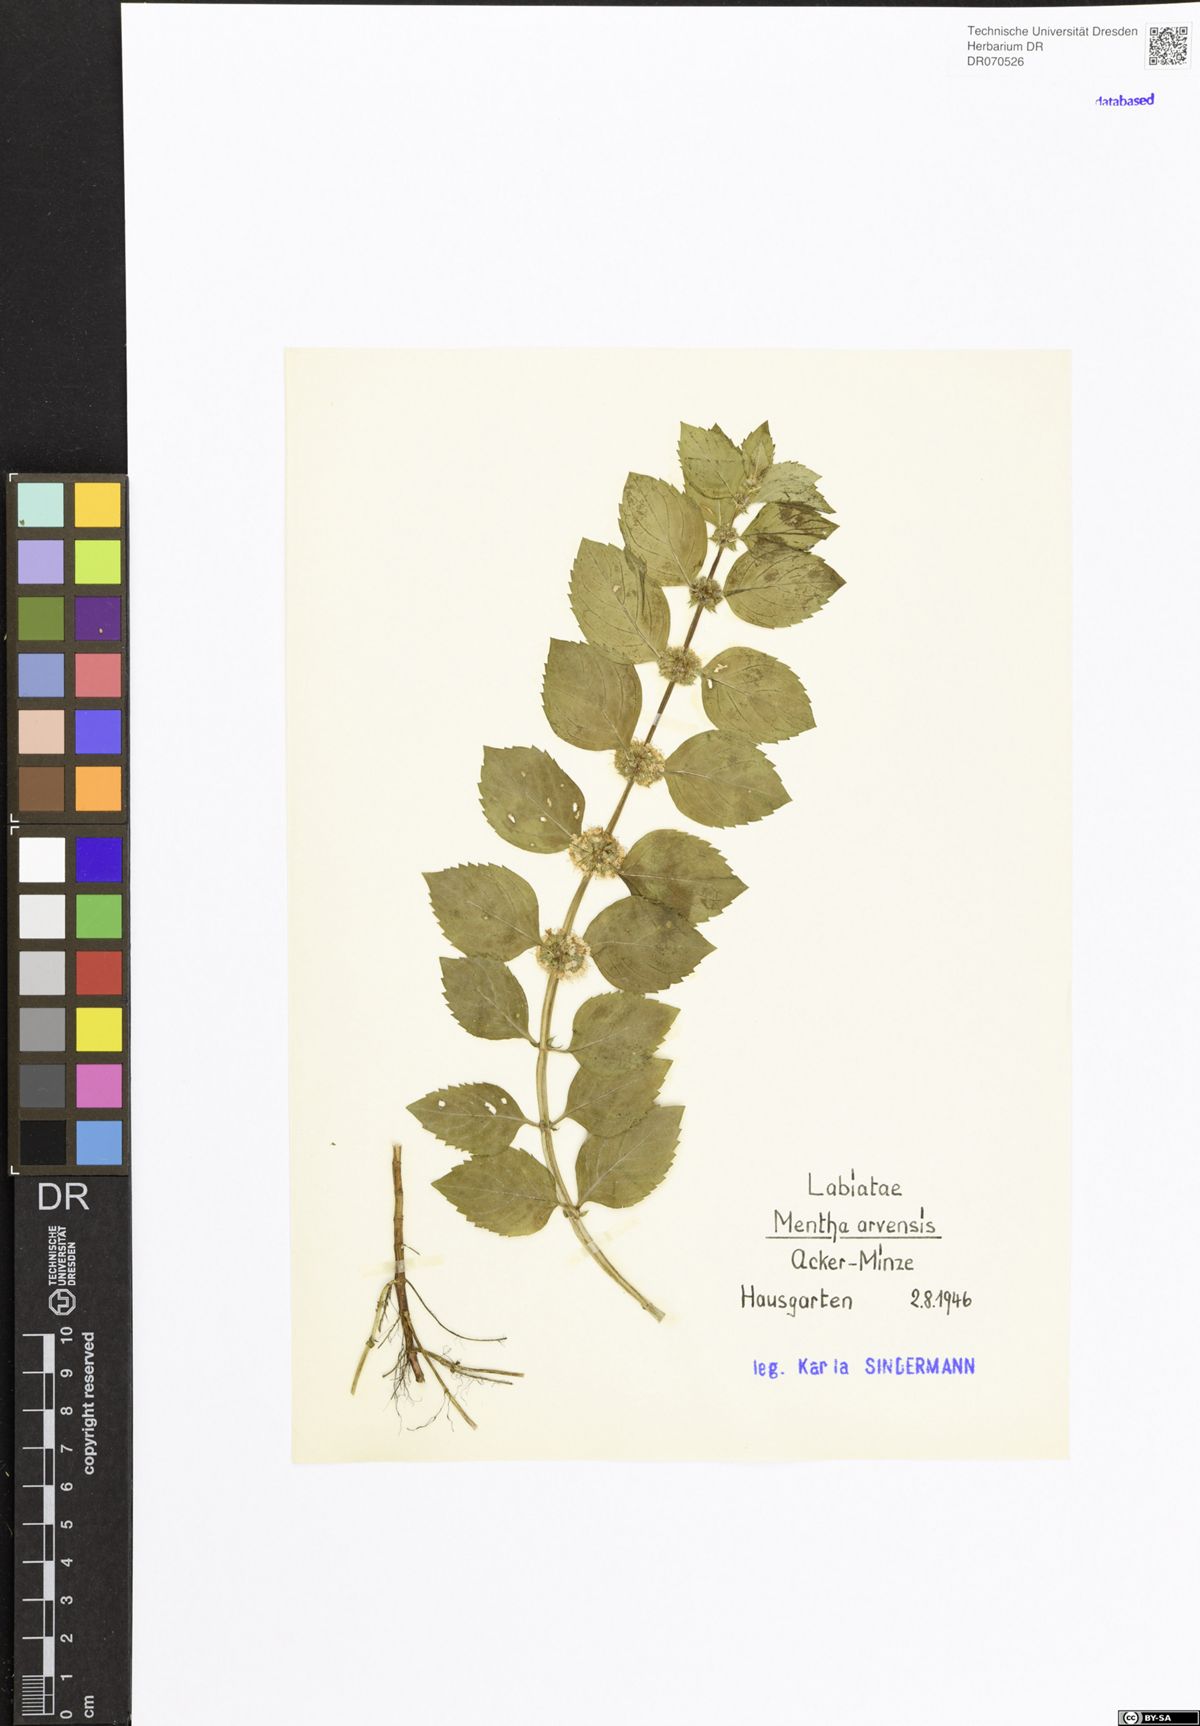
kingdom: Plantae
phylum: Tracheophyta
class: Magnoliopsida
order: Lamiales
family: Lamiaceae
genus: Mentha
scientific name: Mentha arvensis
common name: Corn mint
